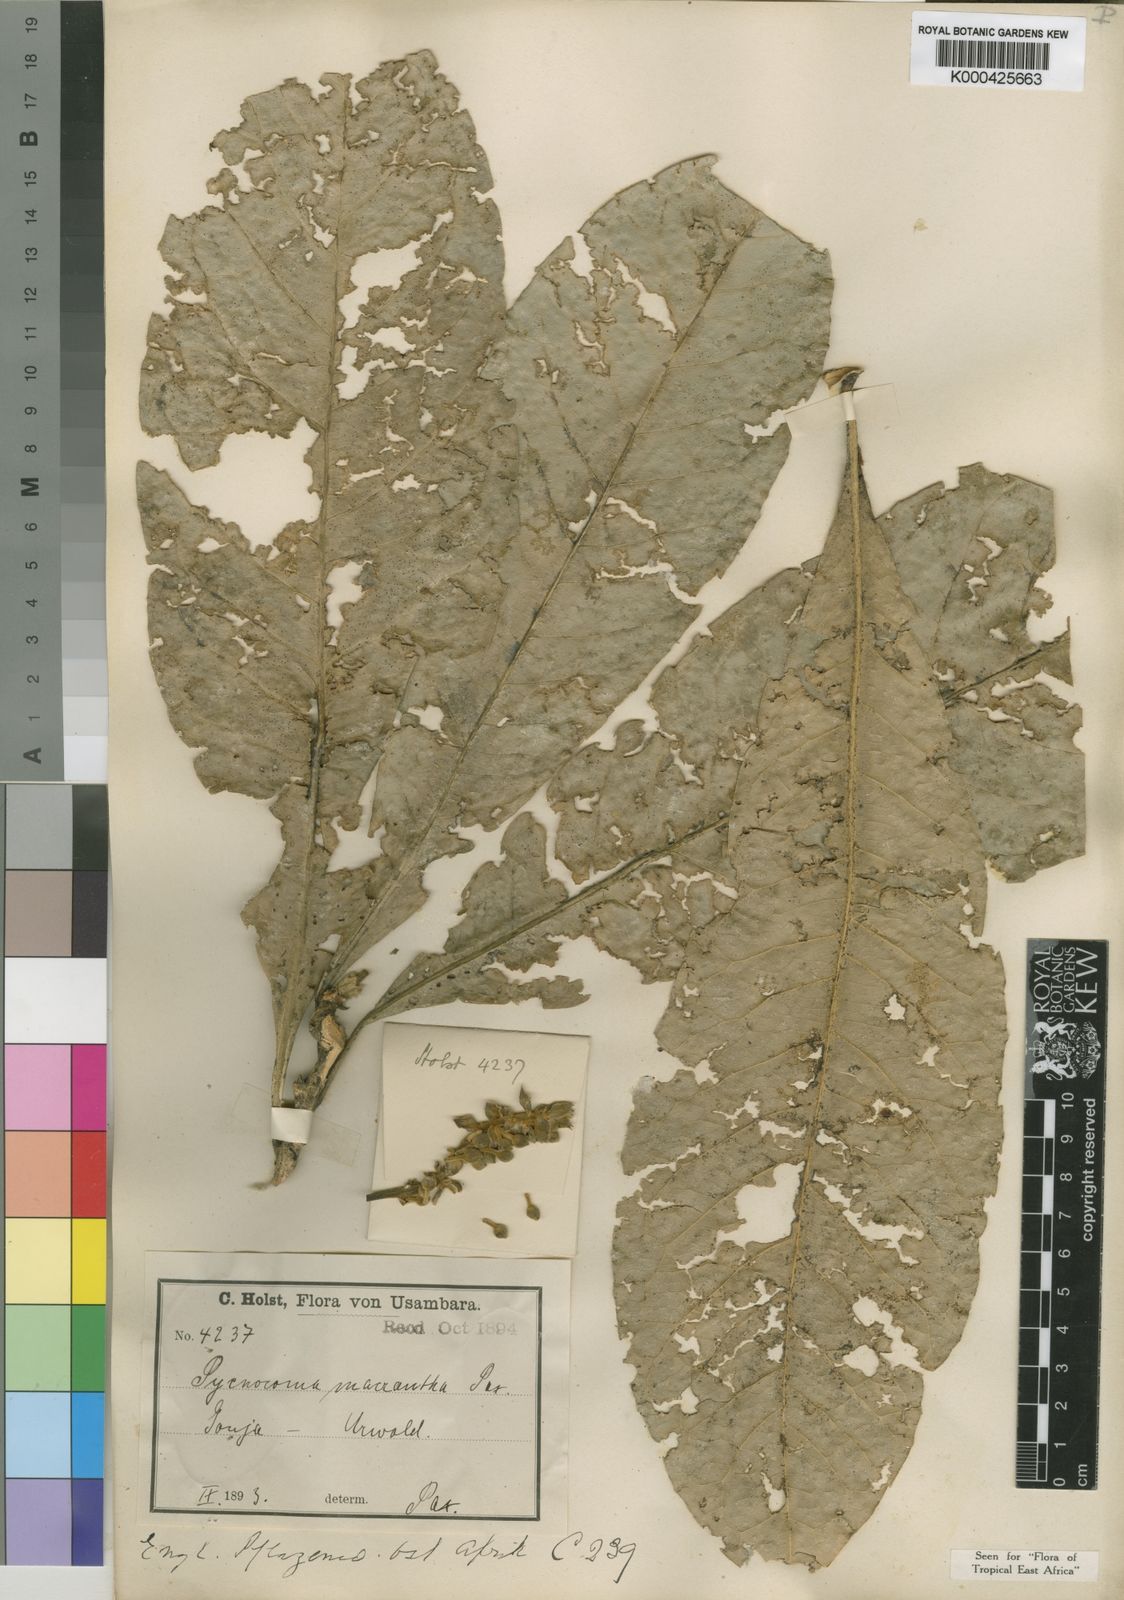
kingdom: Plantae
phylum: Tracheophyta
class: Magnoliopsida
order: Malpighiales
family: Euphorbiaceae
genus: Pycnocoma
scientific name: Pycnocoma
